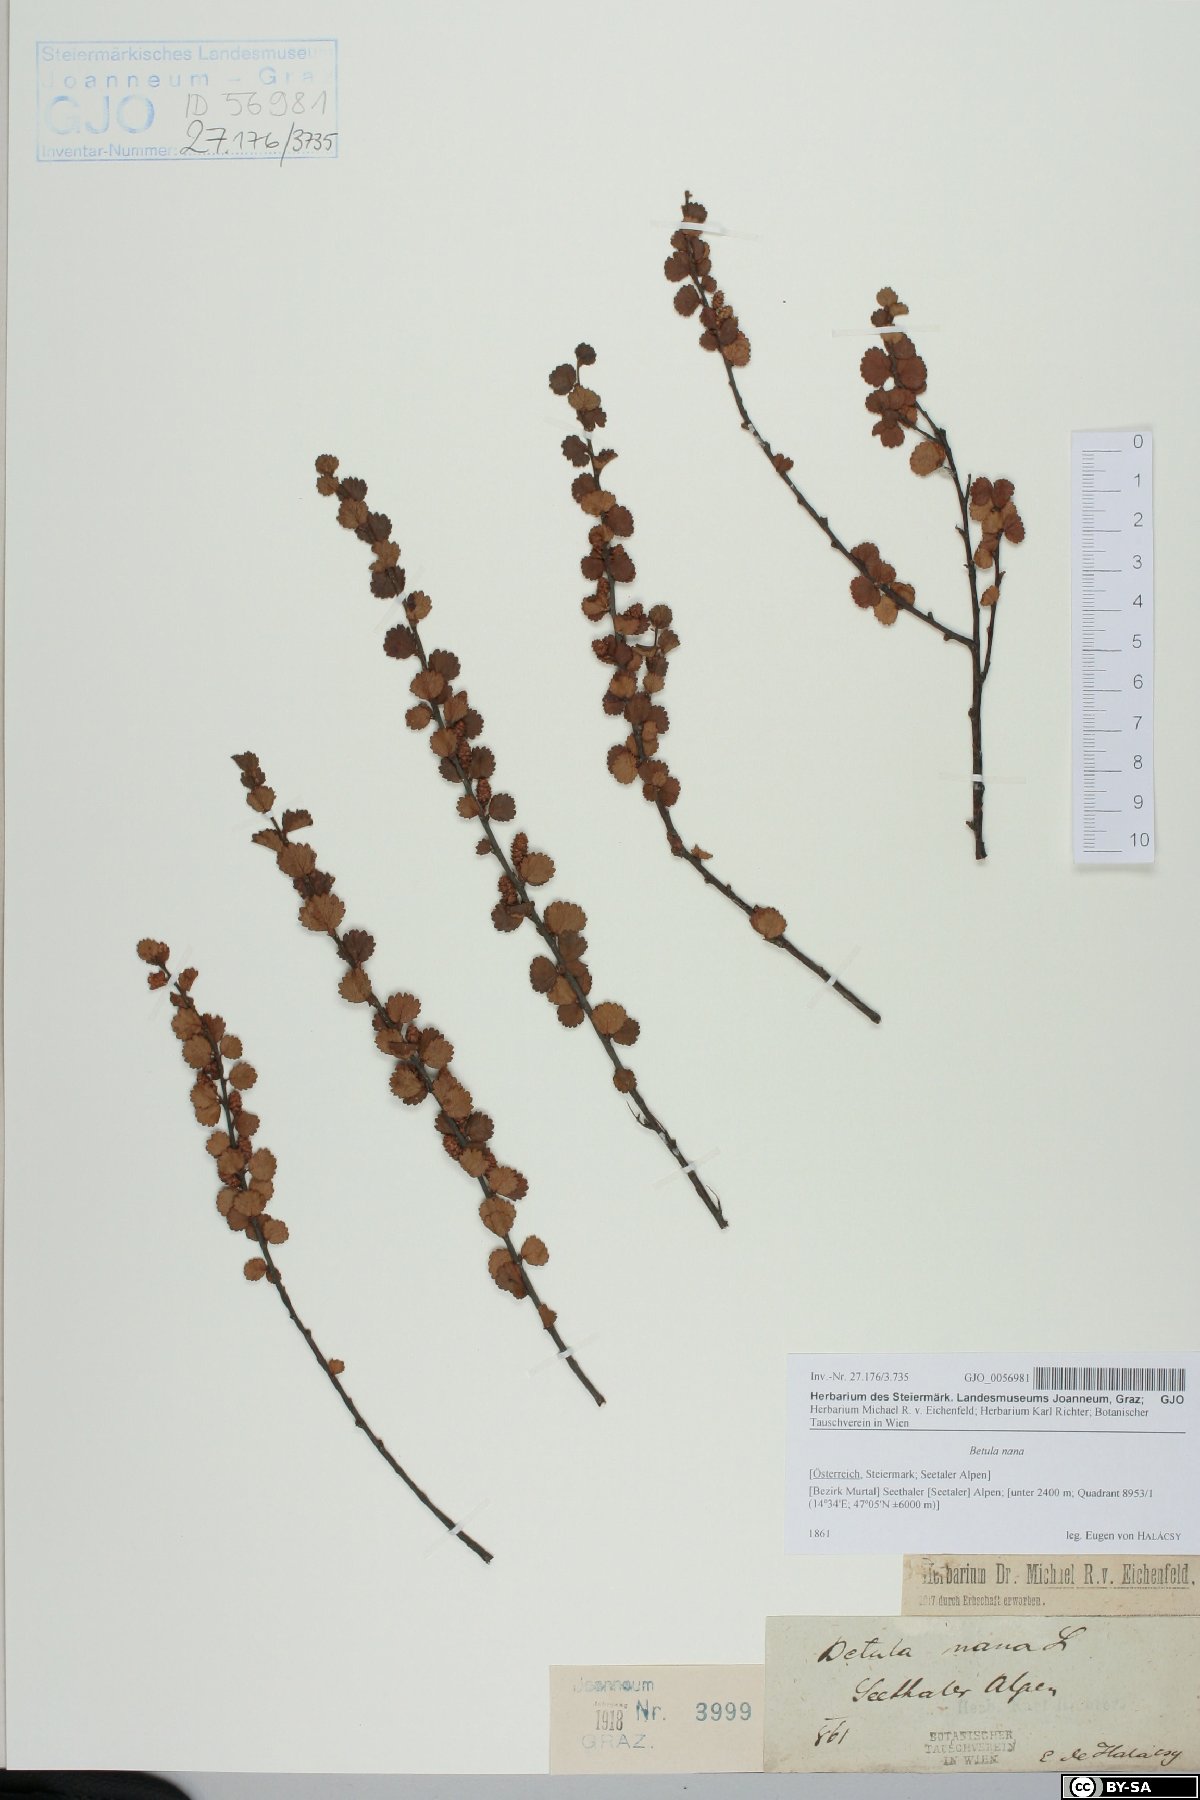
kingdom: Plantae
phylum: Tracheophyta
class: Magnoliopsida
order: Fagales
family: Betulaceae
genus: Betula
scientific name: Betula nana
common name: Arctic dwarf birch
